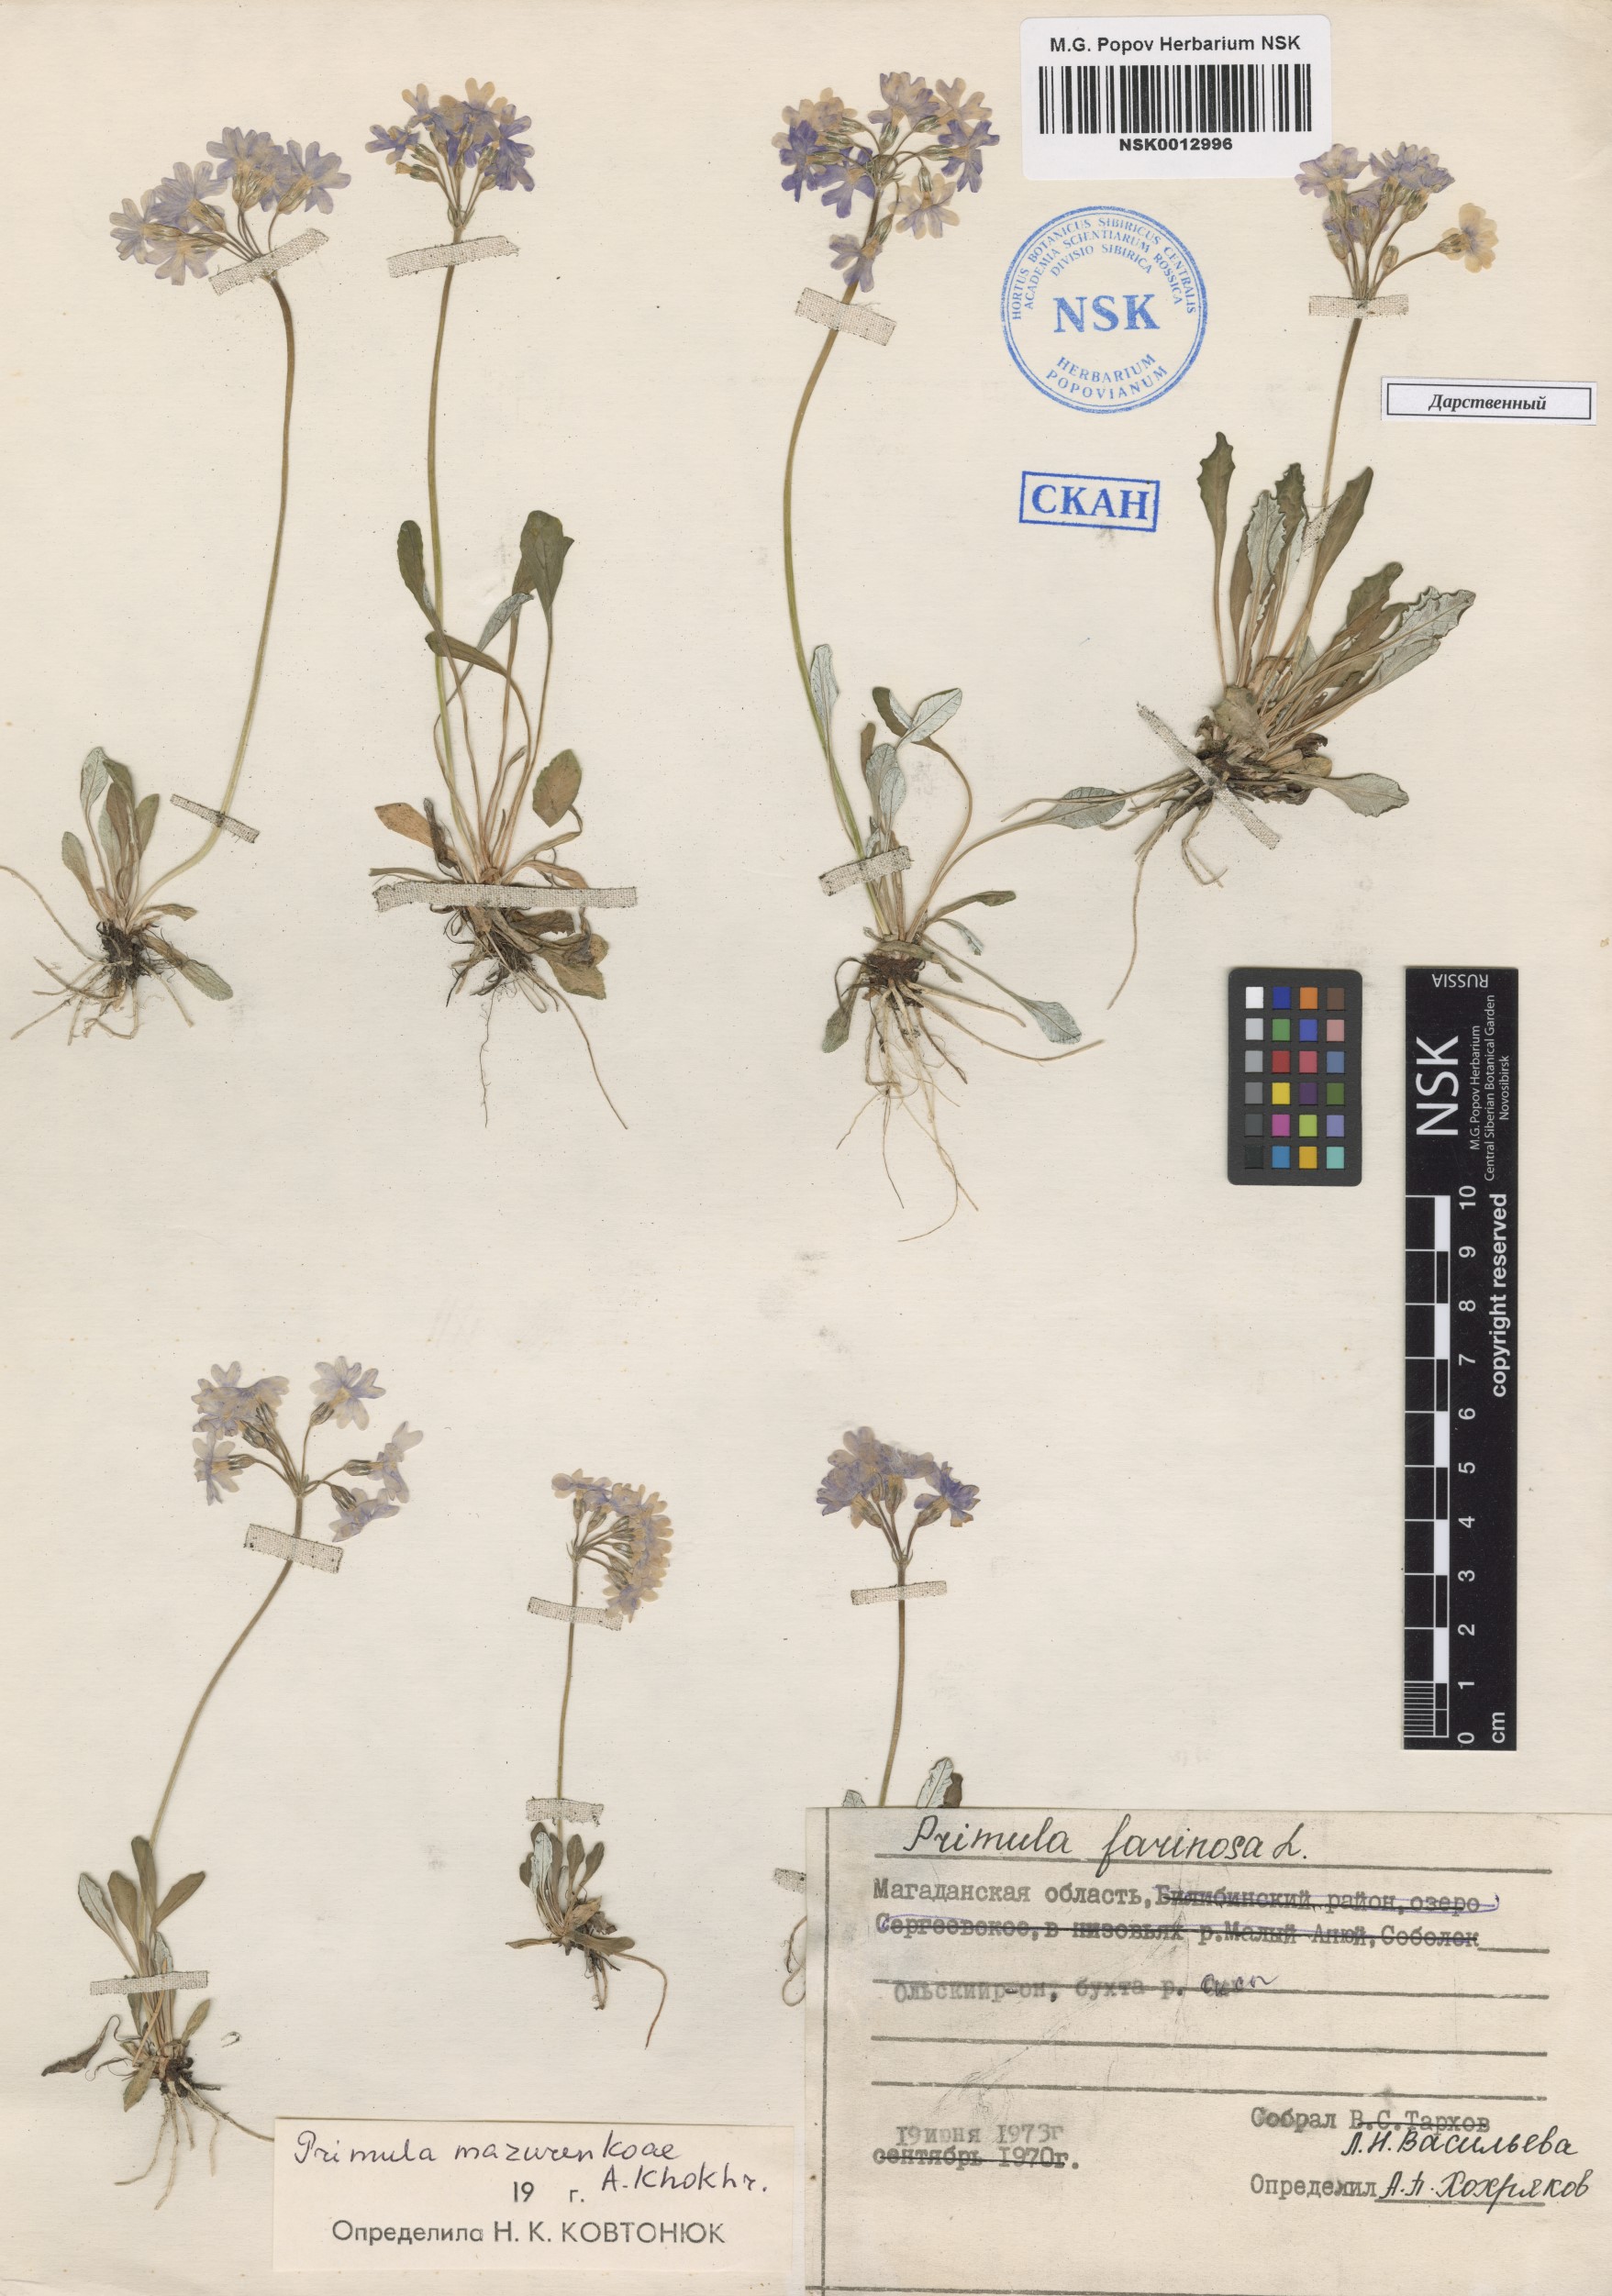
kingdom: Plantae
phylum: Tracheophyta
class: Magnoliopsida
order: Ericales
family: Primulaceae
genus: Primula
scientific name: Primula mazurenkoae
